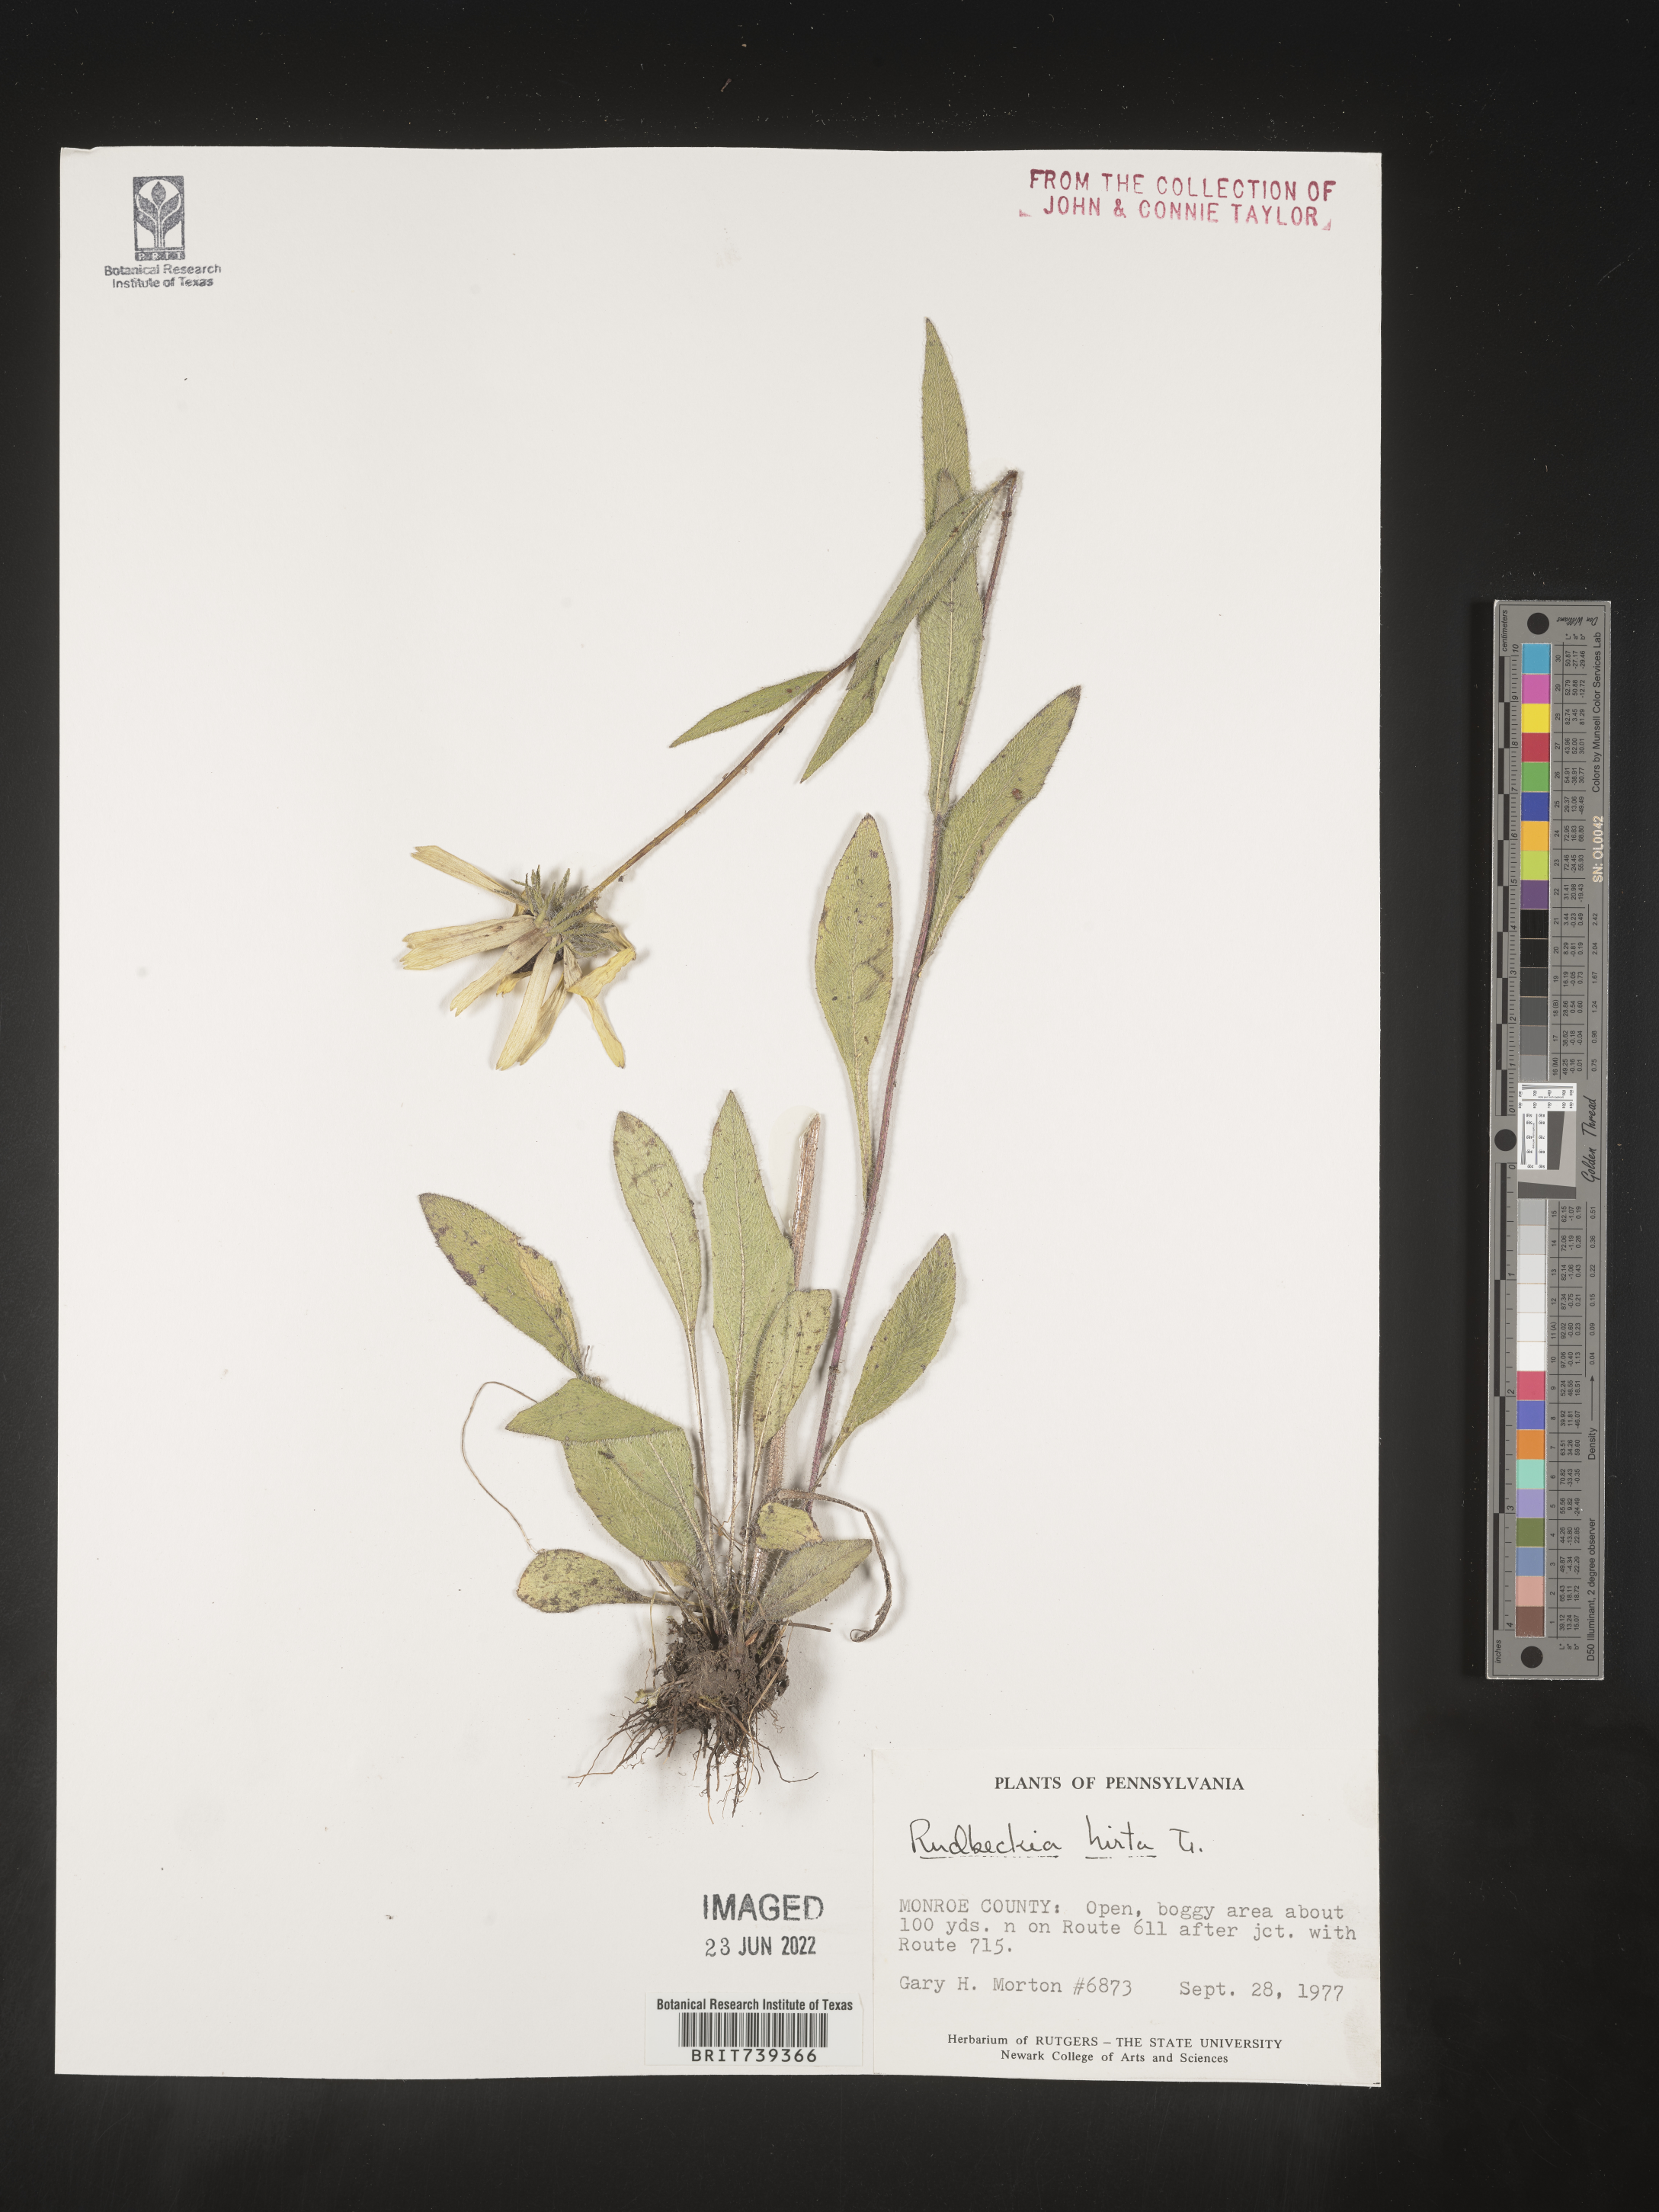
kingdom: Plantae
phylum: Tracheophyta
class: Magnoliopsida
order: Asterales
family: Asteraceae
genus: Rudbeckia
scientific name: Rudbeckia hirta
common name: Black-eyed-susan
